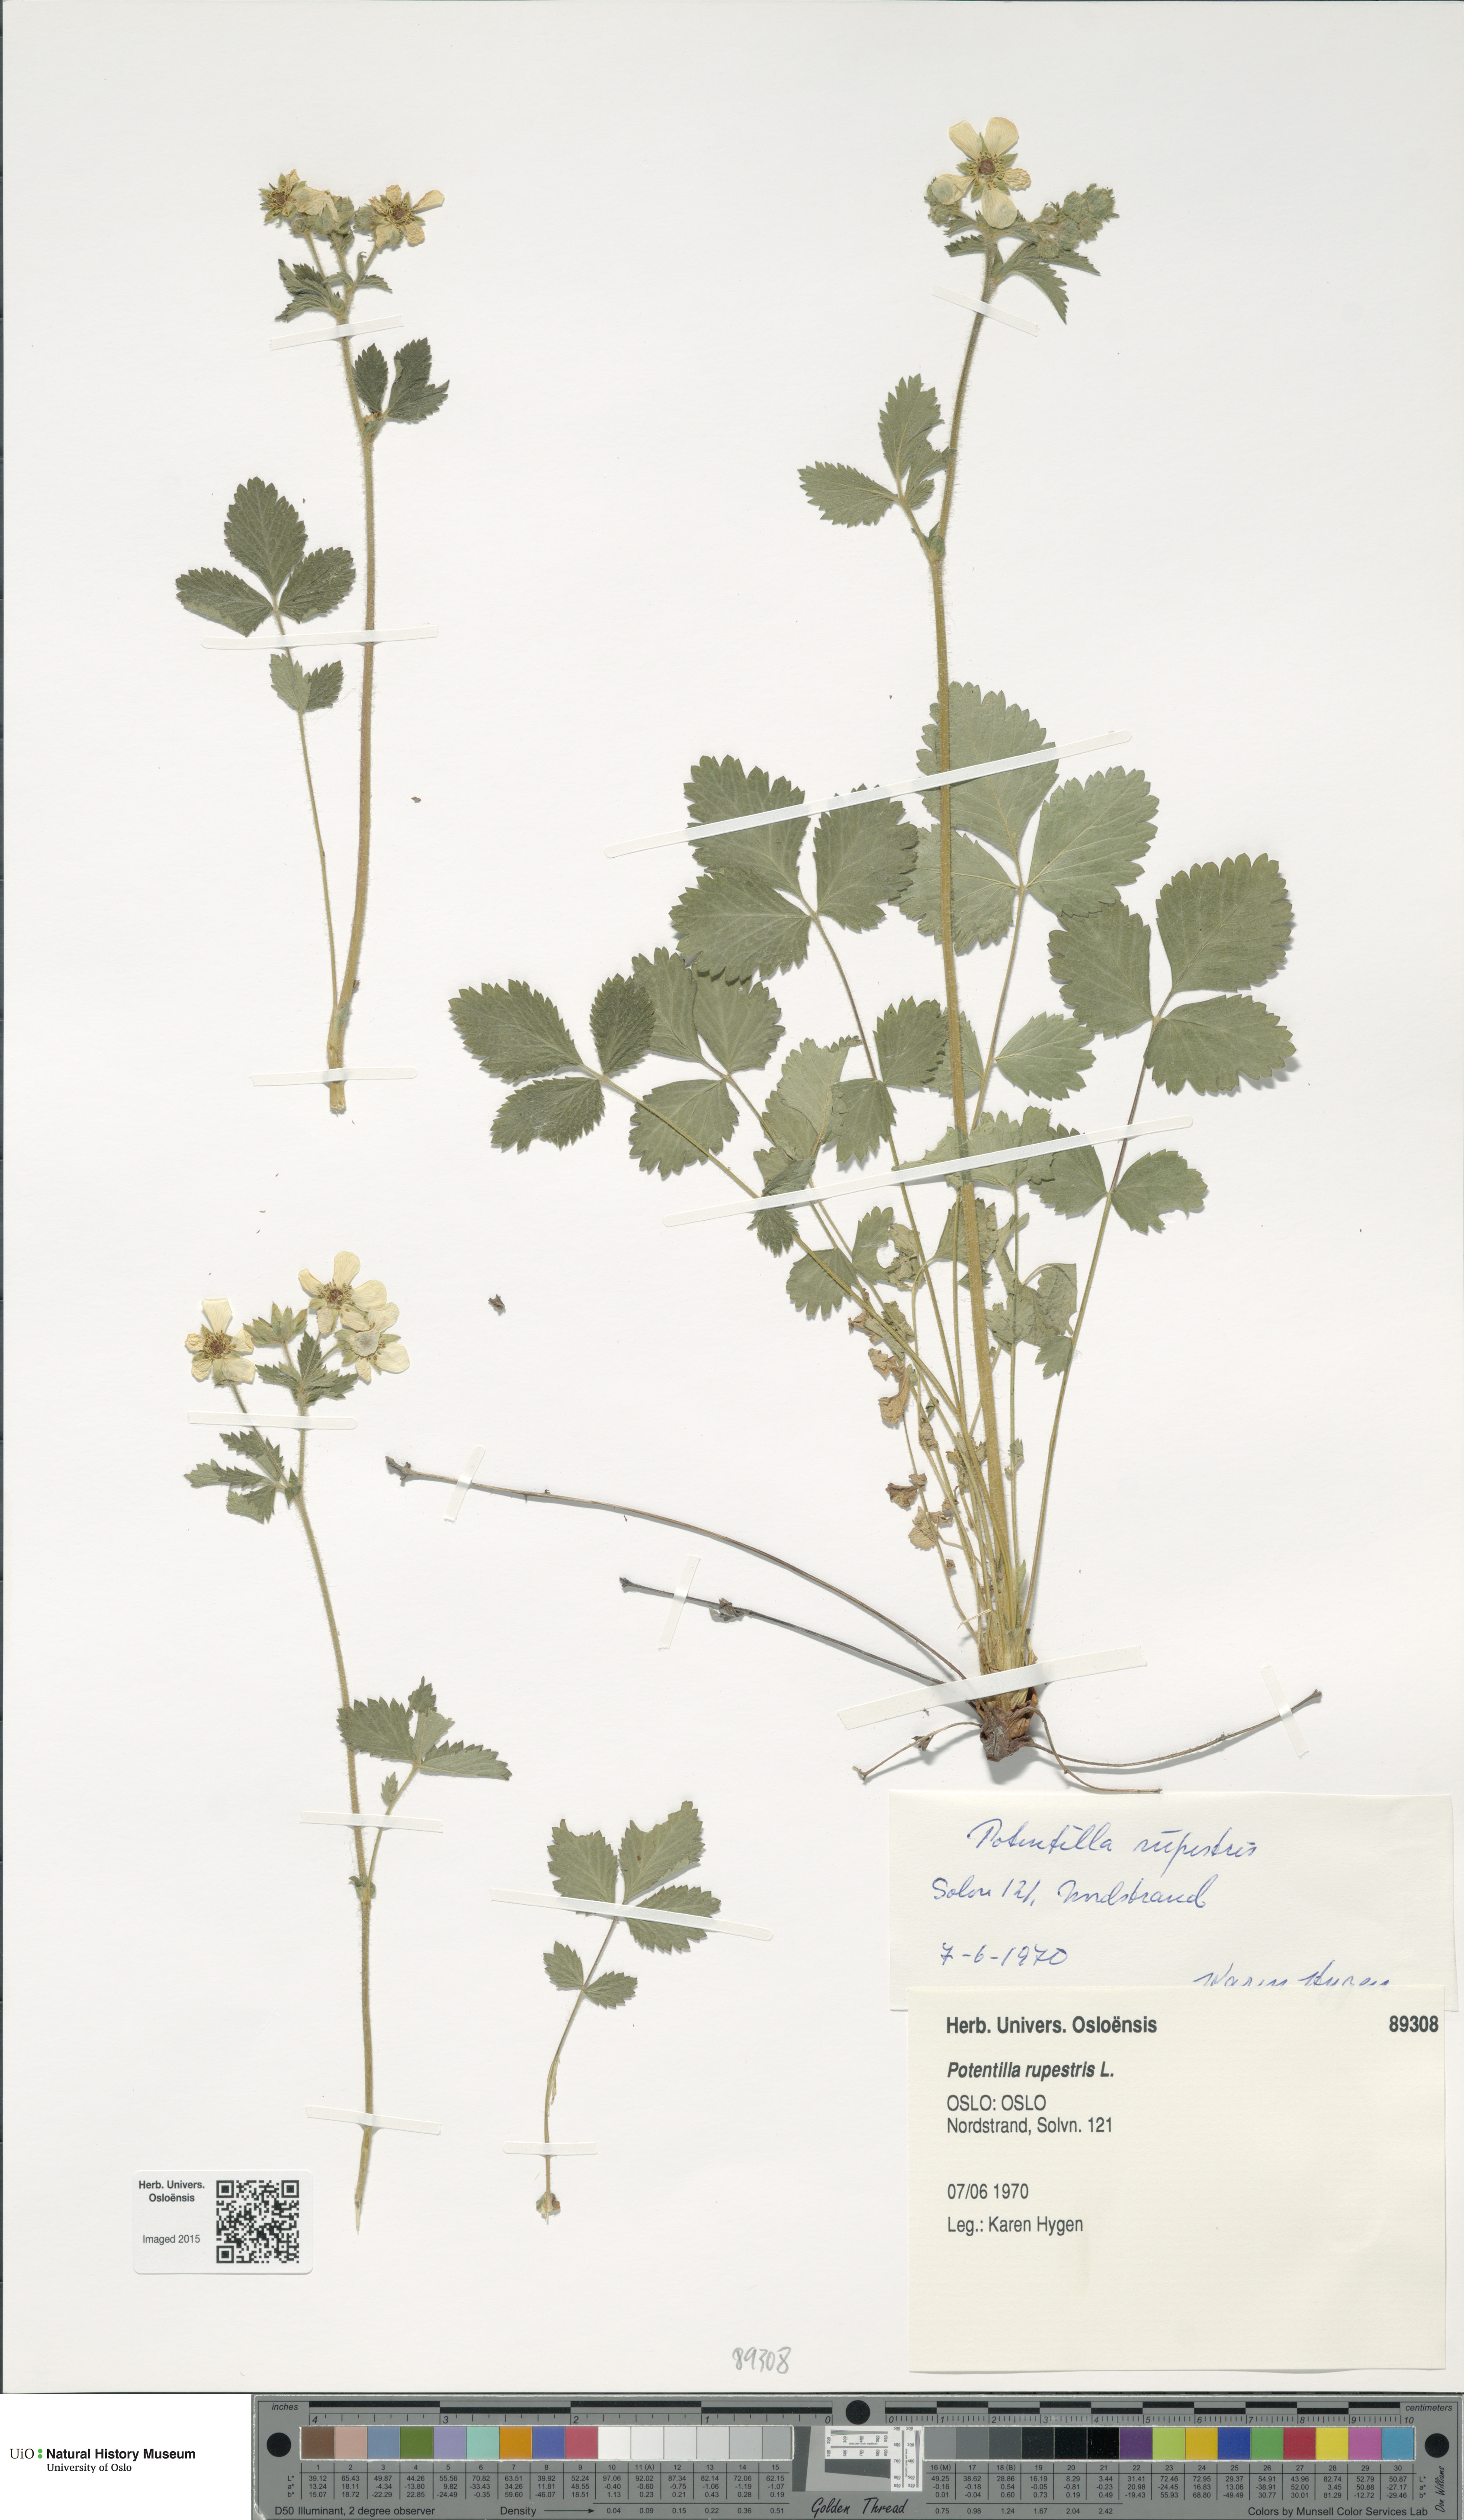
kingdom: Plantae
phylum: Tracheophyta
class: Magnoliopsida
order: Rosales
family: Rosaceae
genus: Drymocallis
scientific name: Drymocallis rupestris
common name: Rock cinquefoil
